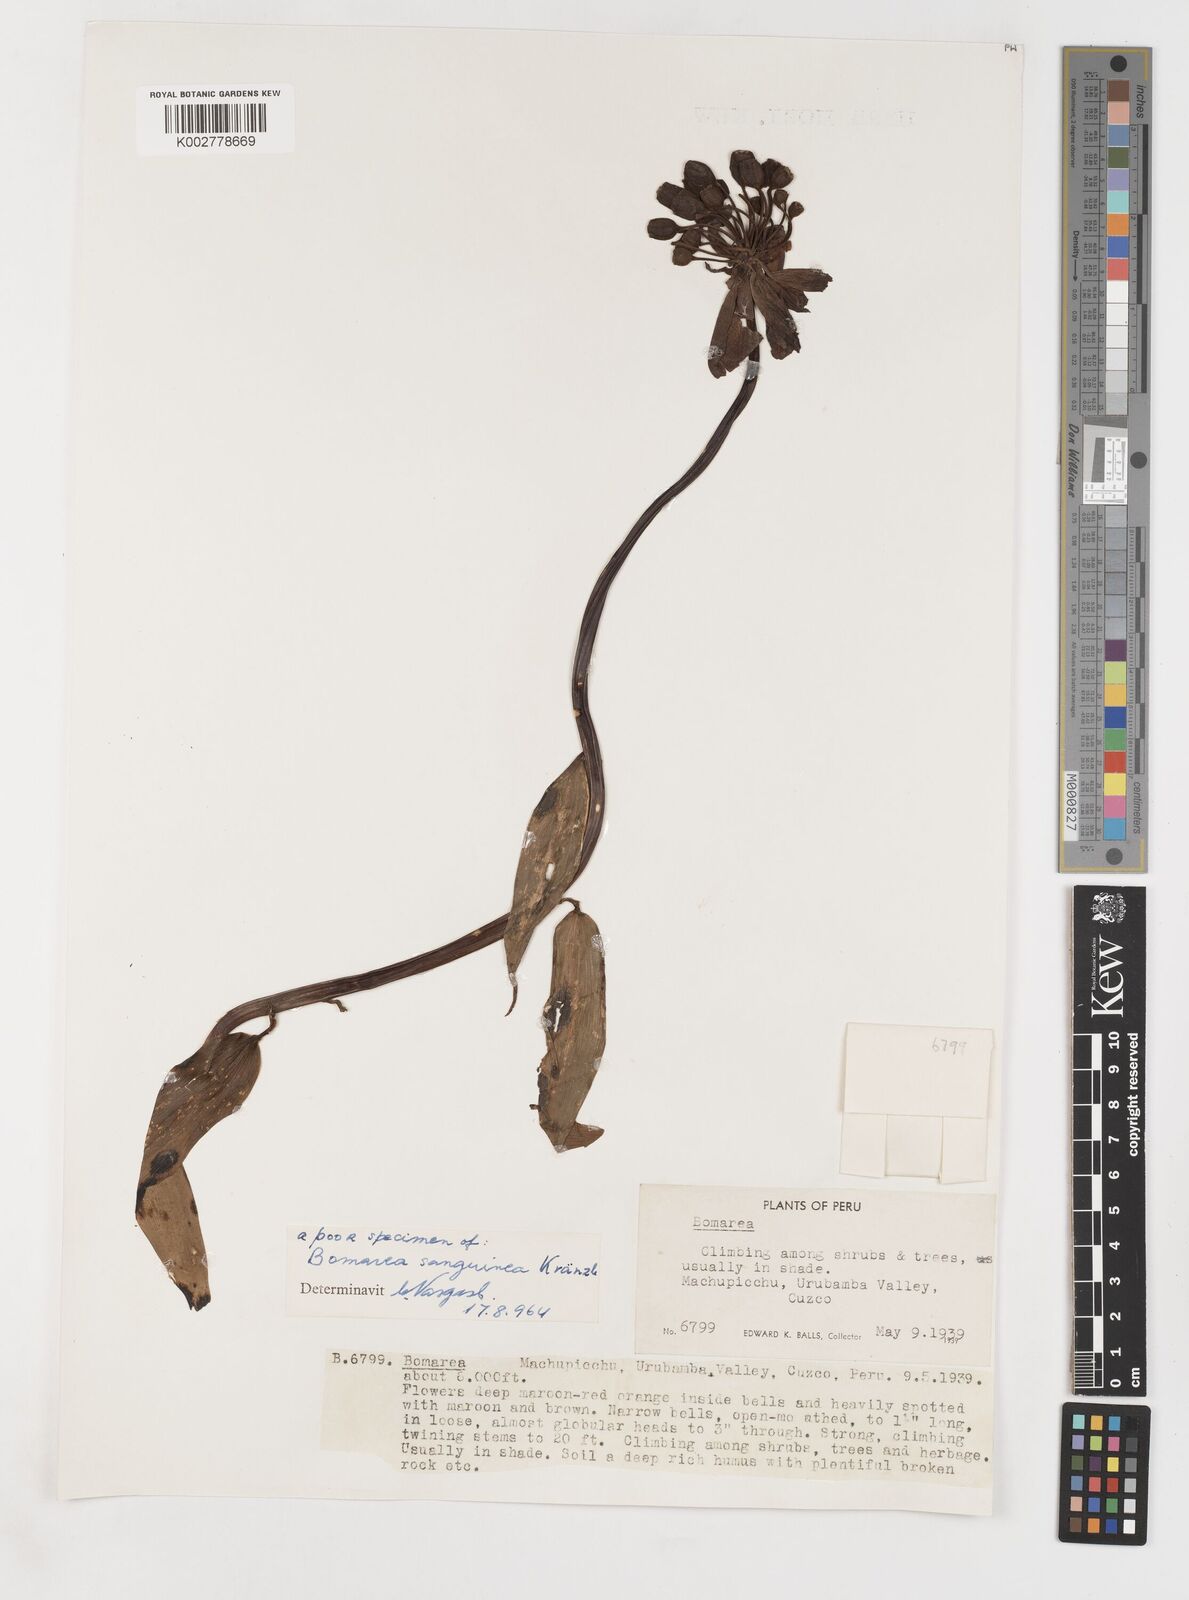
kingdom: Plantae
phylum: Tracheophyta
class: Liliopsida
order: Liliales
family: Alstroemeriaceae
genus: Bomarea
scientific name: Bomarea formosissima
